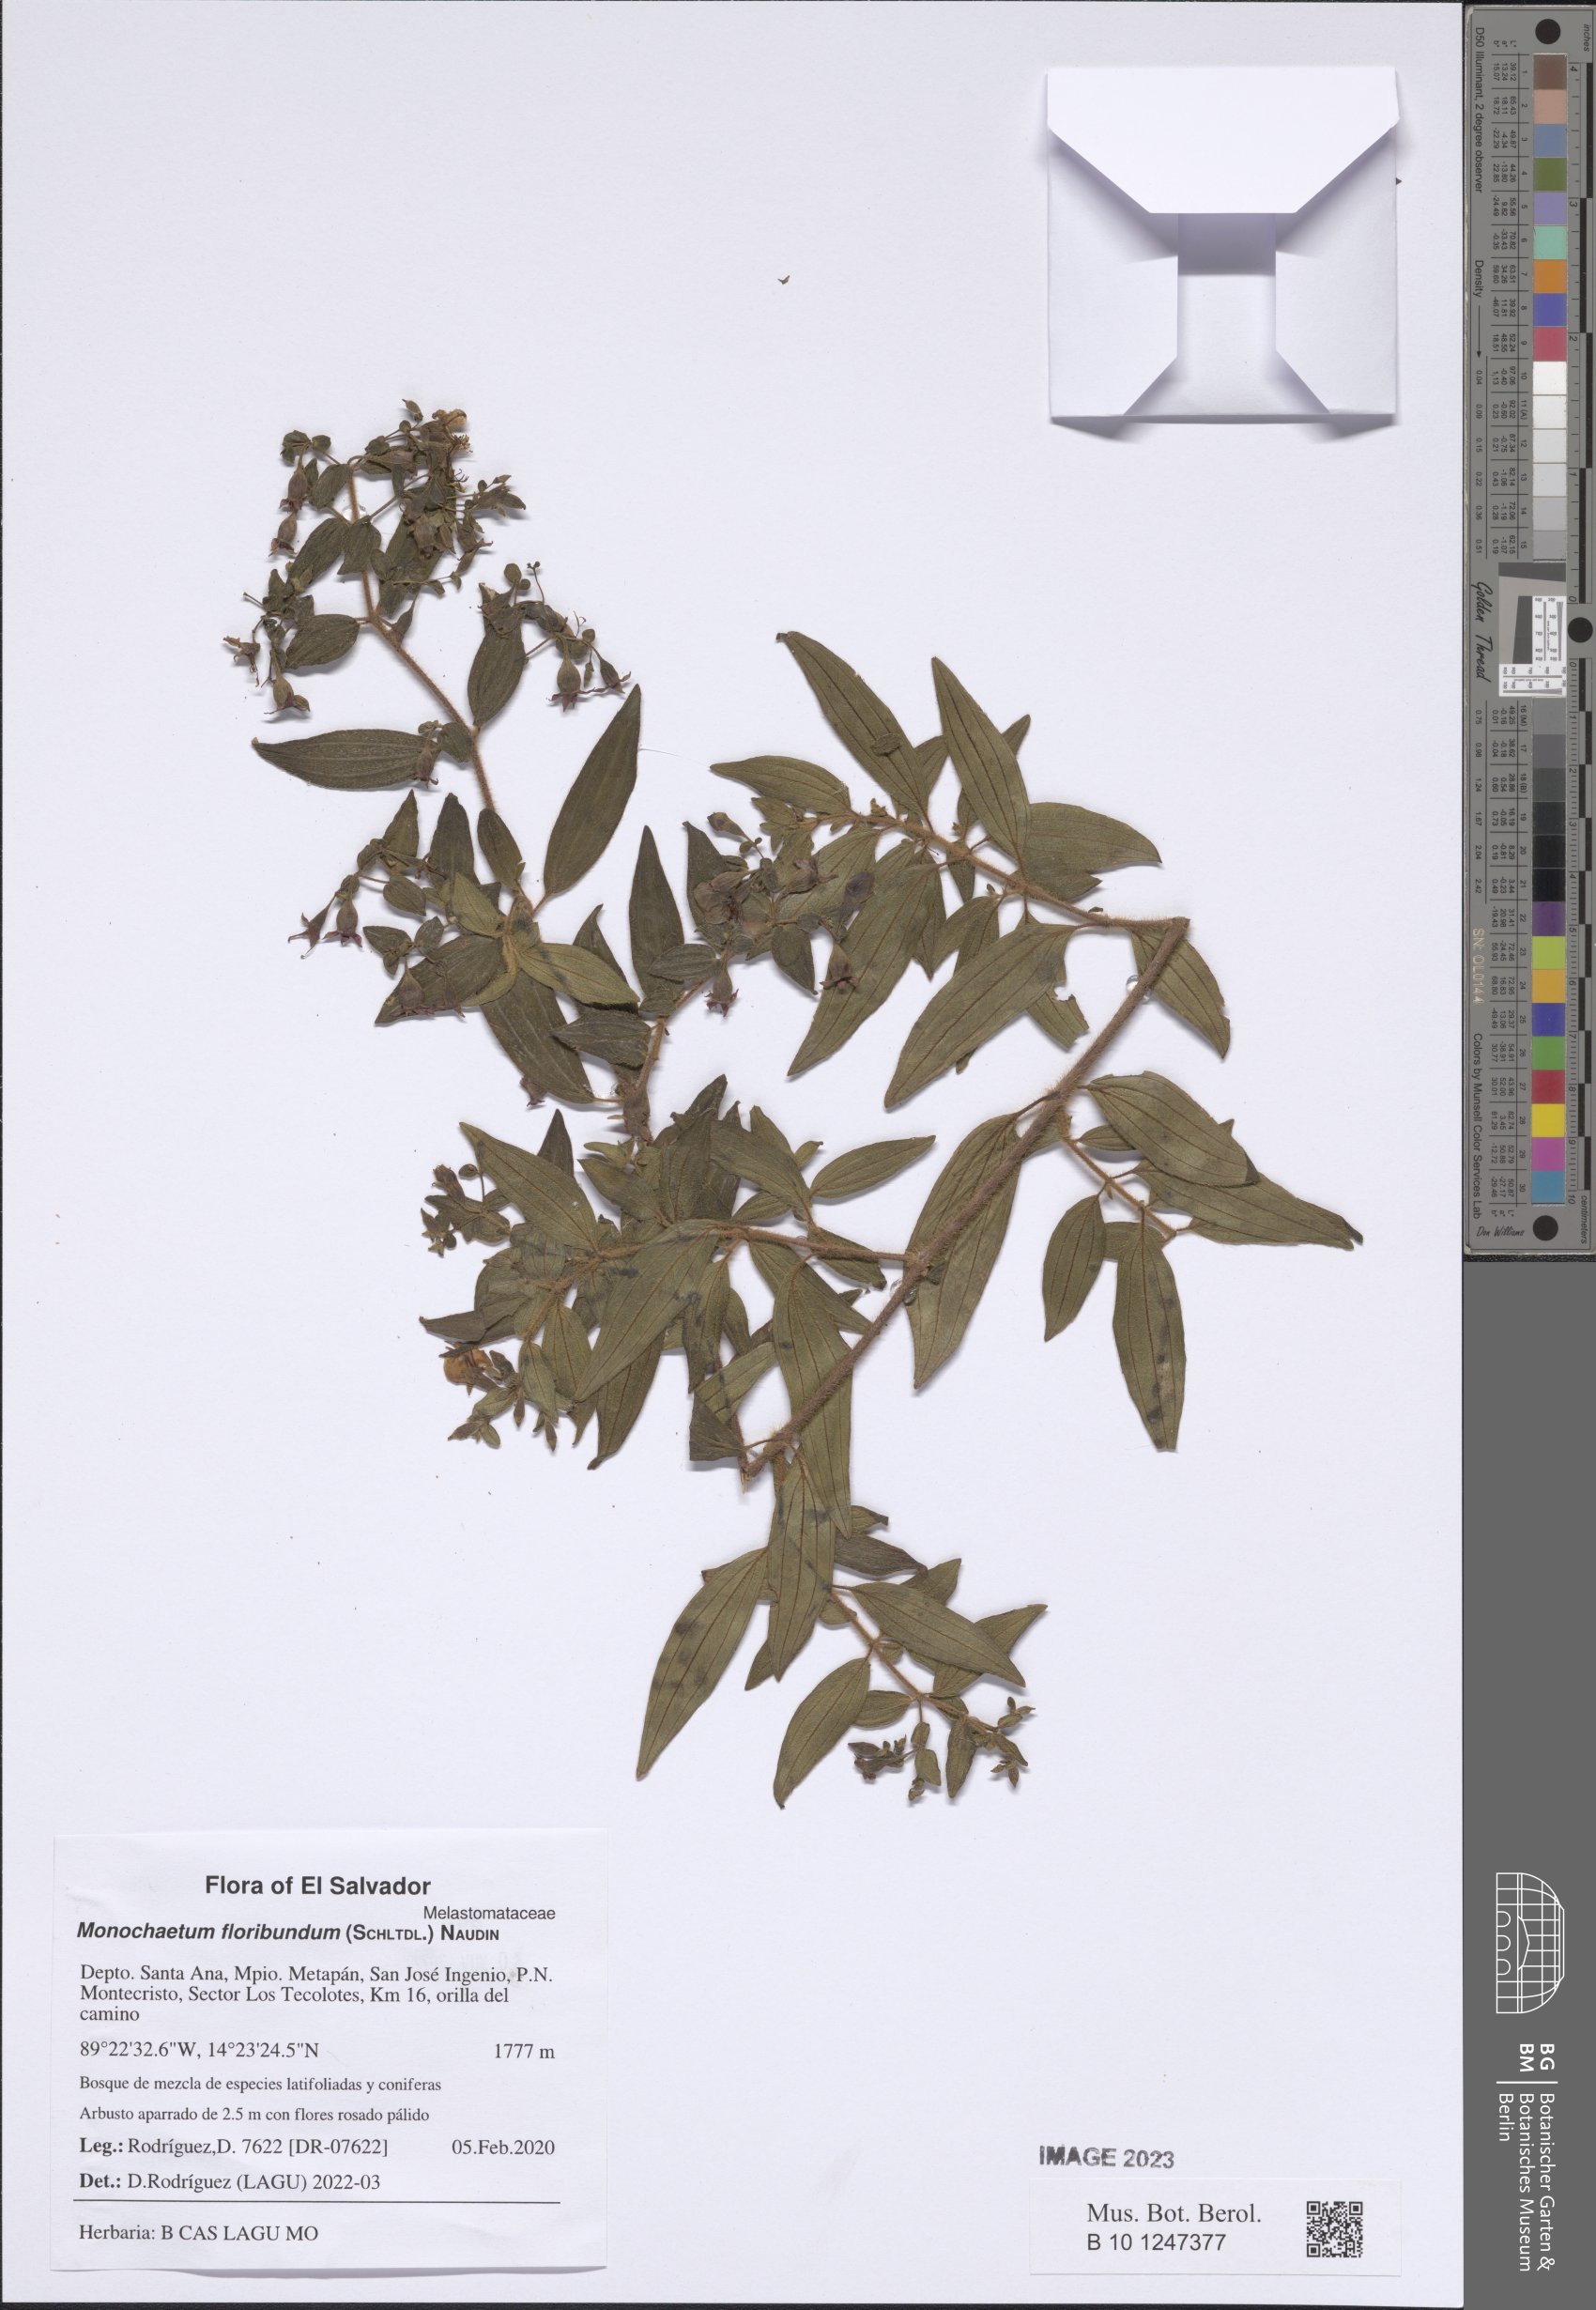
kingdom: Plantae
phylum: Tracheophyta
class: Magnoliopsida
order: Myrtales
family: Melastomataceae
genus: Monochaetum
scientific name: Monochaetum floribundum
